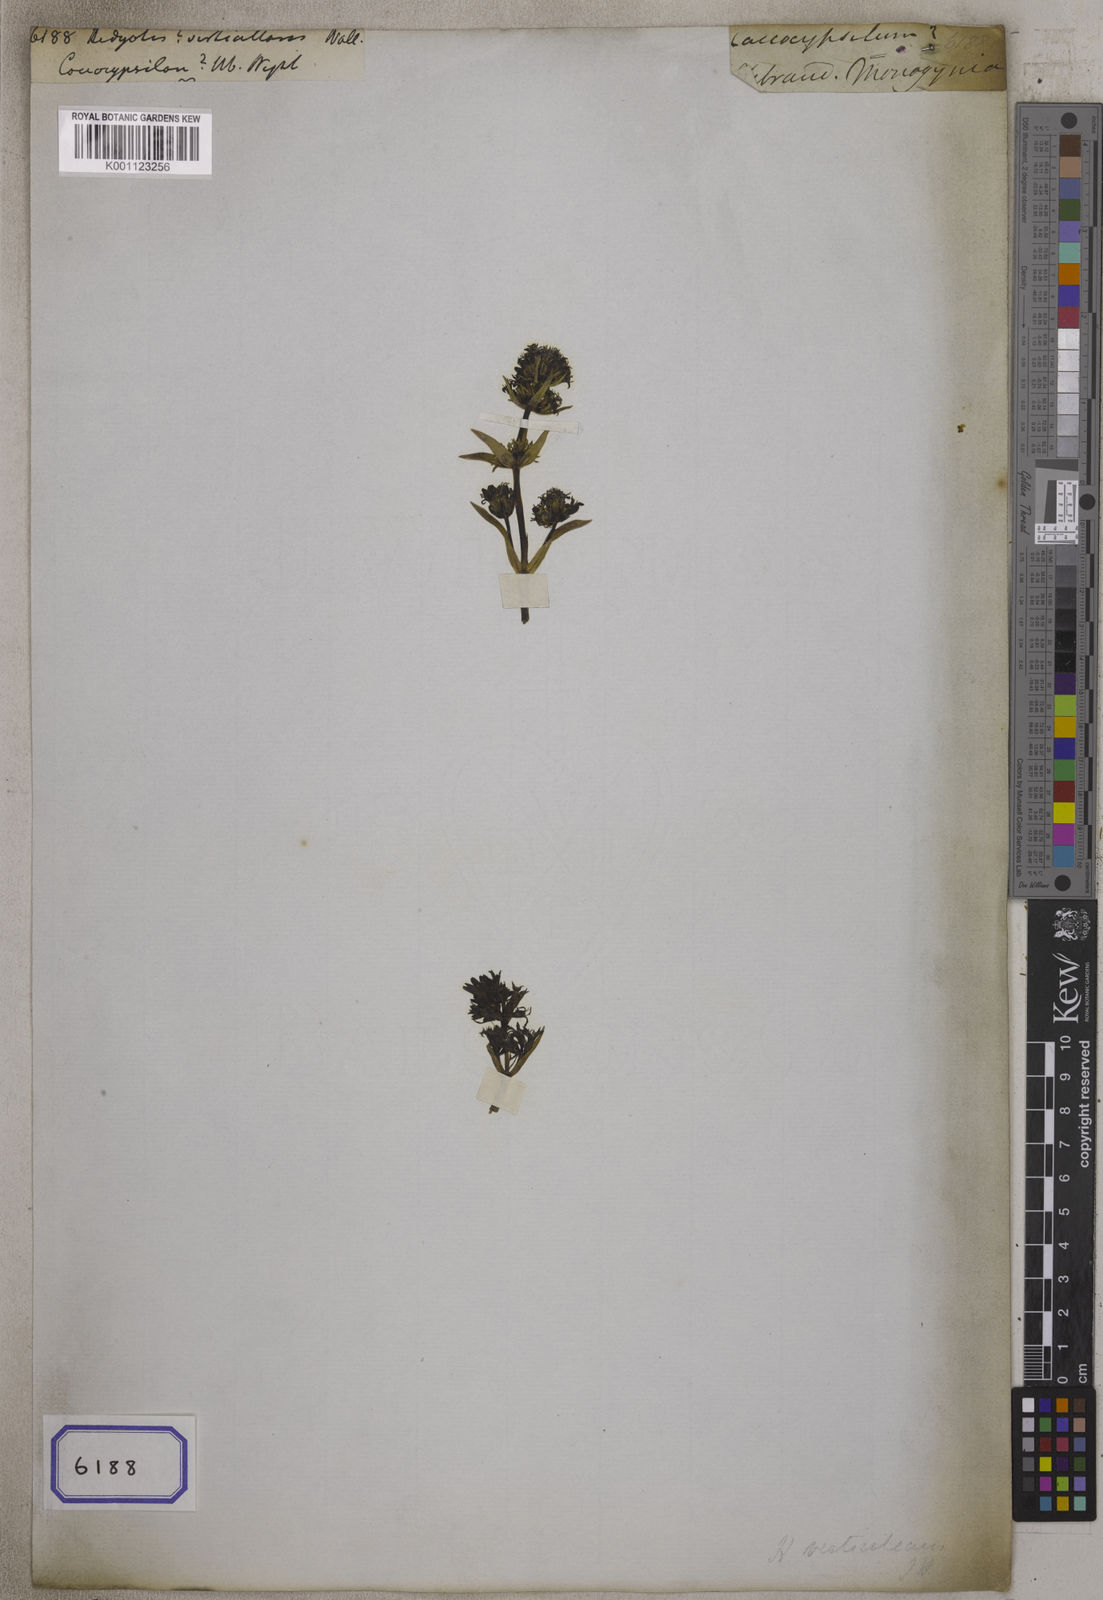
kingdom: Plantae
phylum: Tracheophyta
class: Magnoliopsida
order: Gentianales
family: Rubiaceae
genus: Hedyotis
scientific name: Hedyotis
